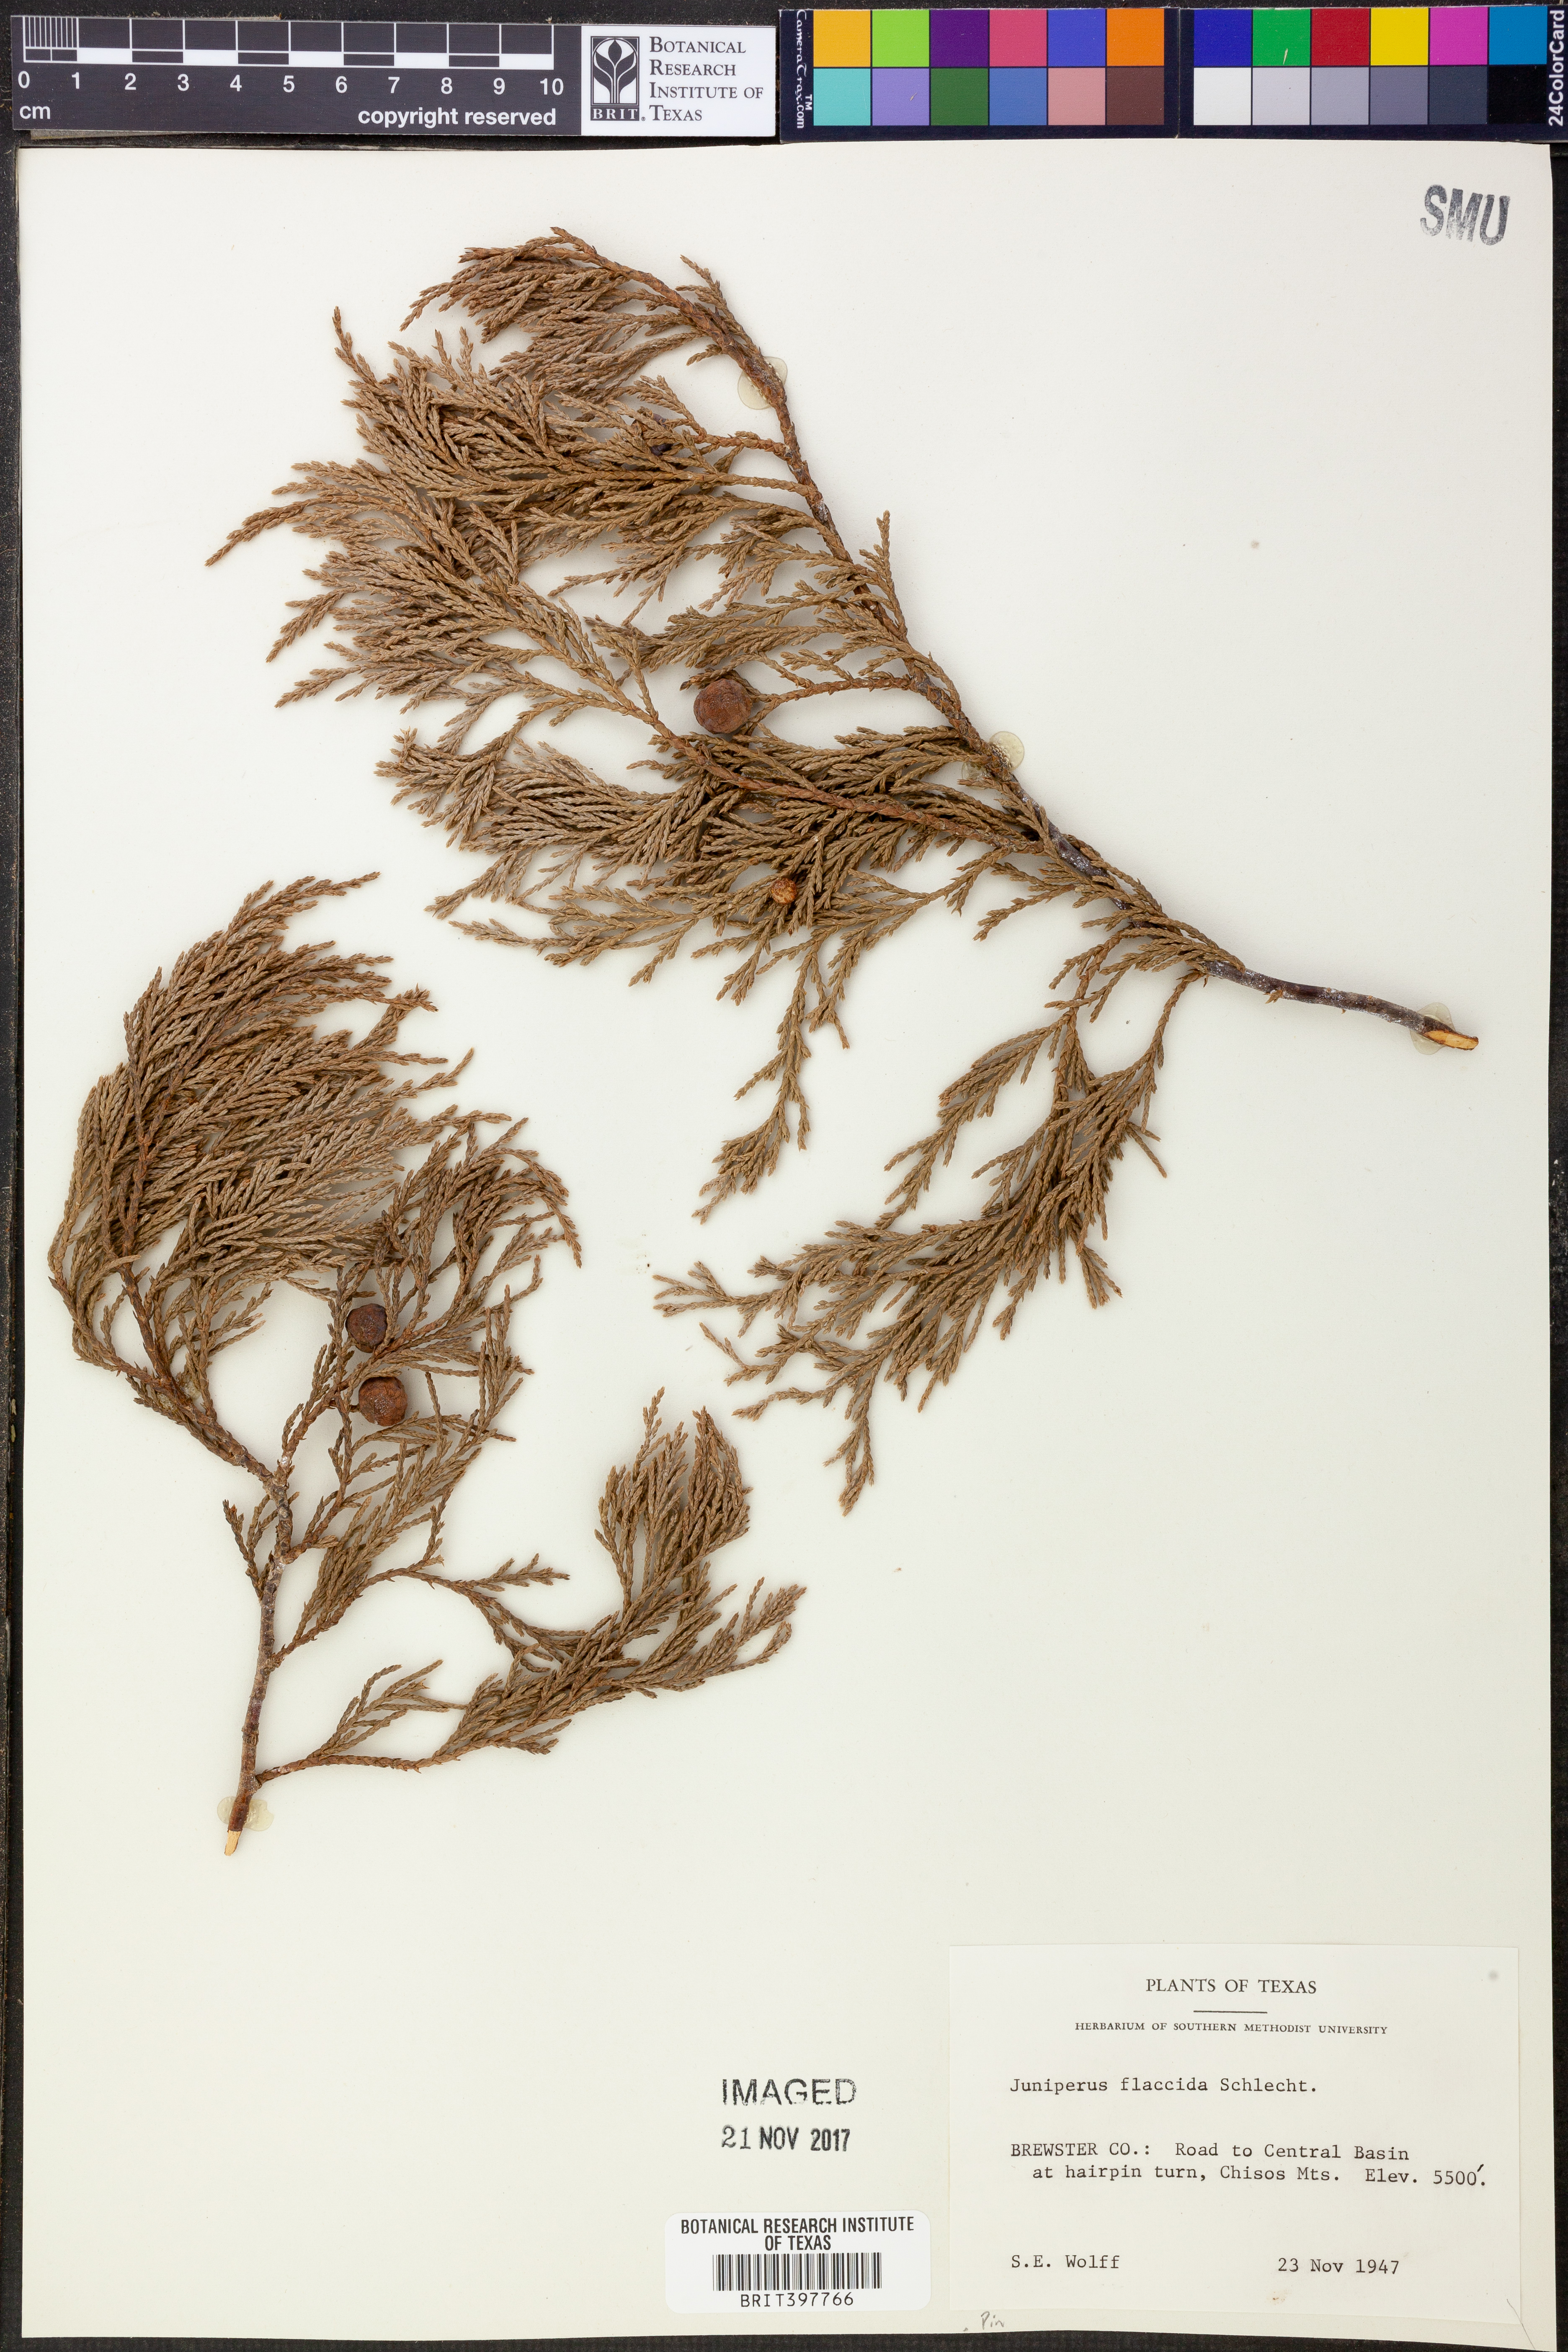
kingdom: Plantae
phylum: Tracheophyta
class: Pinopsida
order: Pinales
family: Cupressaceae
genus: Juniperus
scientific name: Juniperus flaccida
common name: Drooping juniper
